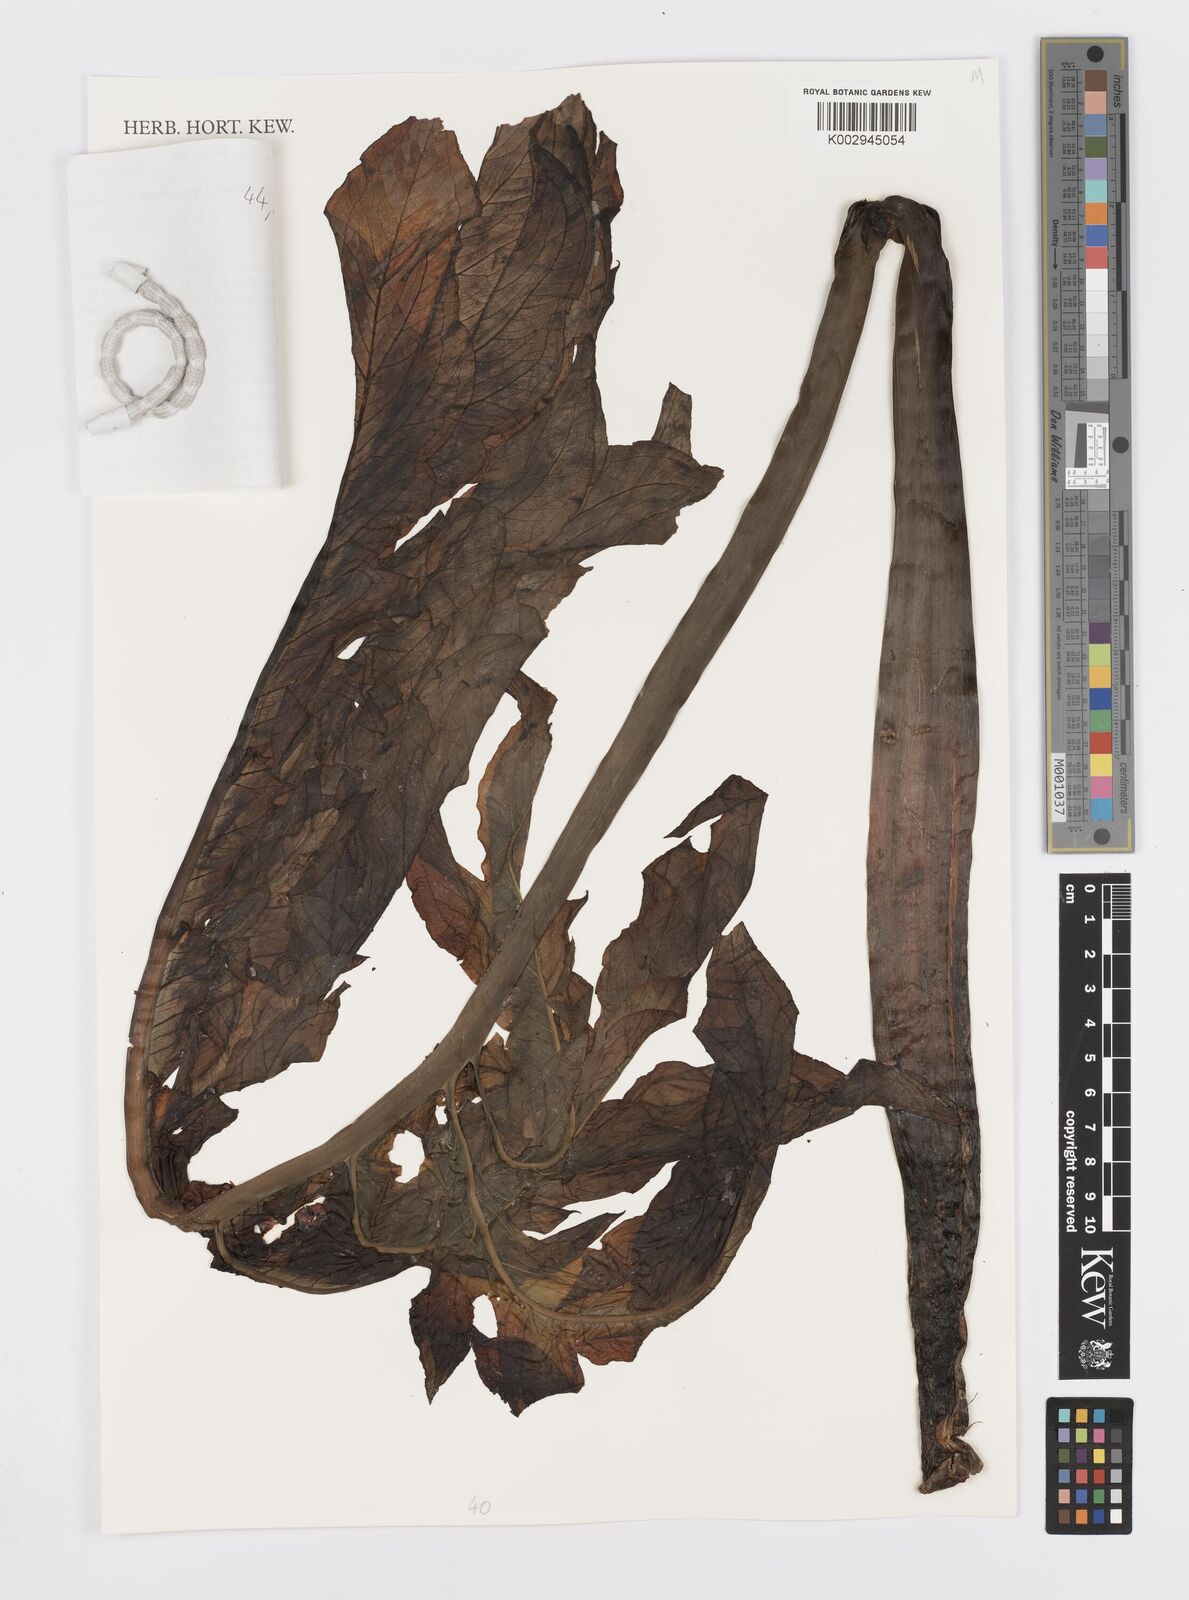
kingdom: Plantae
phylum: Tracheophyta
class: Liliopsida
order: Alismatales
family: Araceae
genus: Gorgonidium
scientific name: Gorgonidium vermicidum
